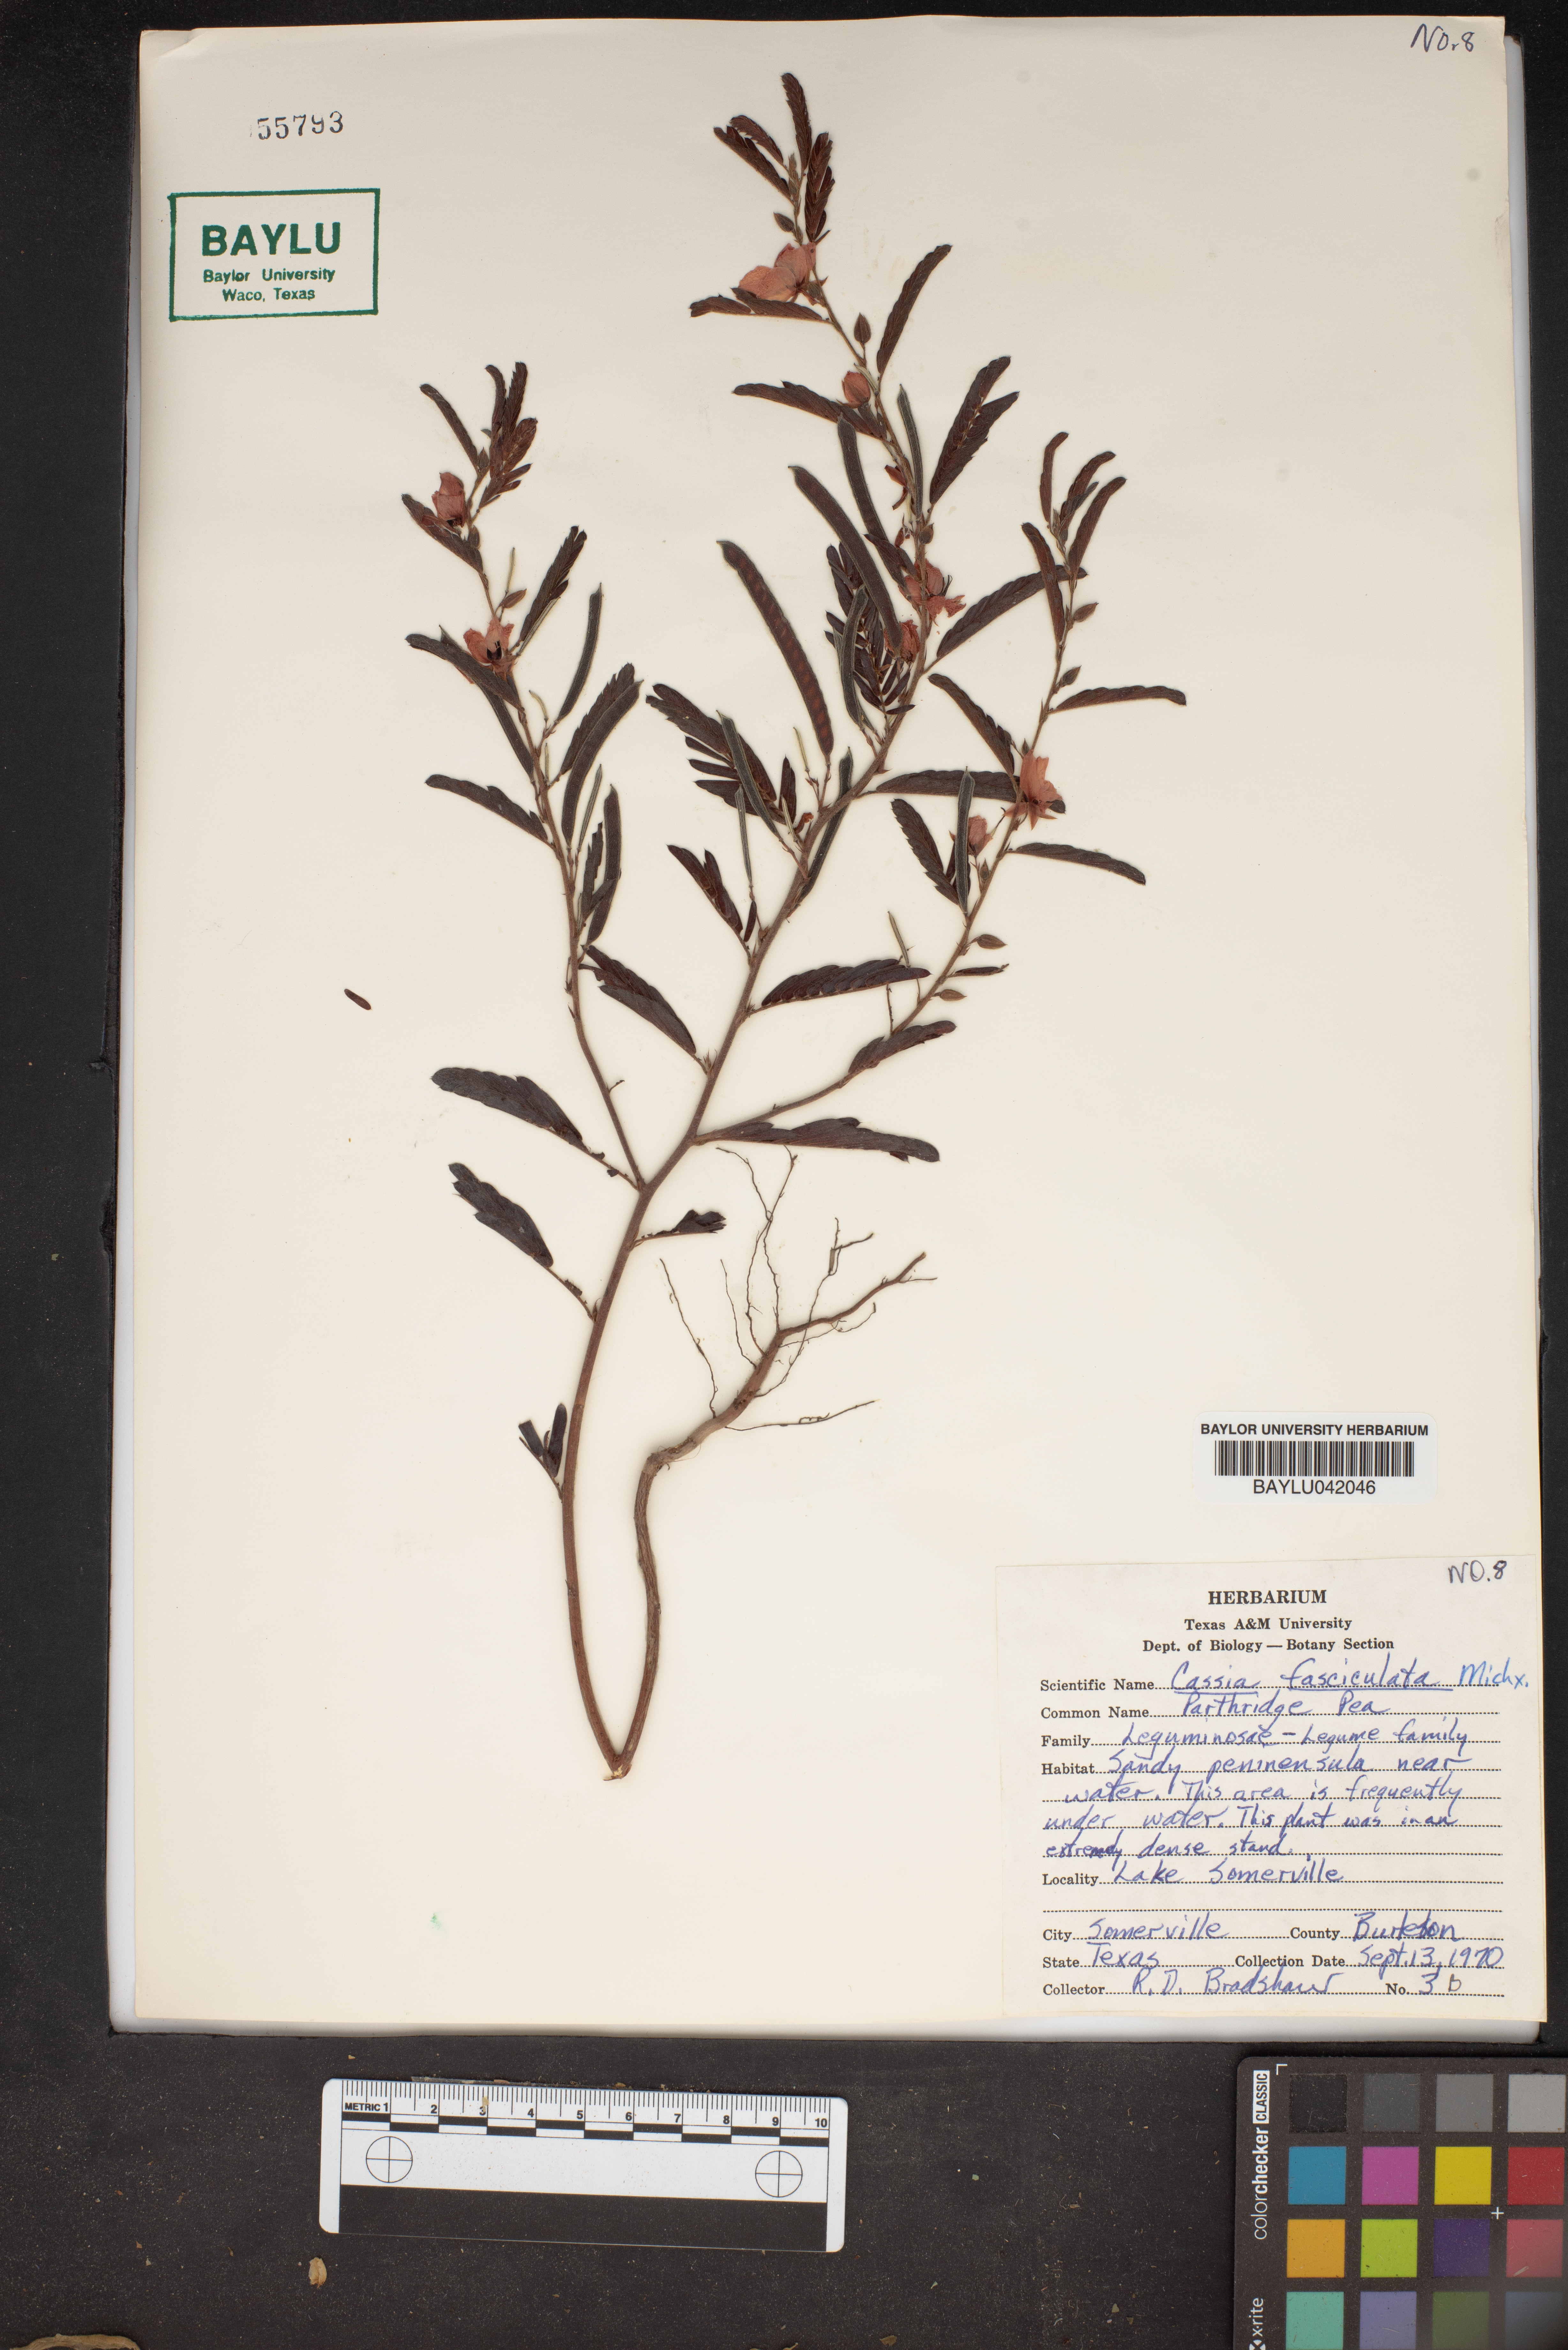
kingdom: Plantae
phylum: Tracheophyta
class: Magnoliopsida
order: Fabales
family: Fabaceae
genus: Chamaecrista
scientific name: Chamaecrista fasciculata
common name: Golden cassia
